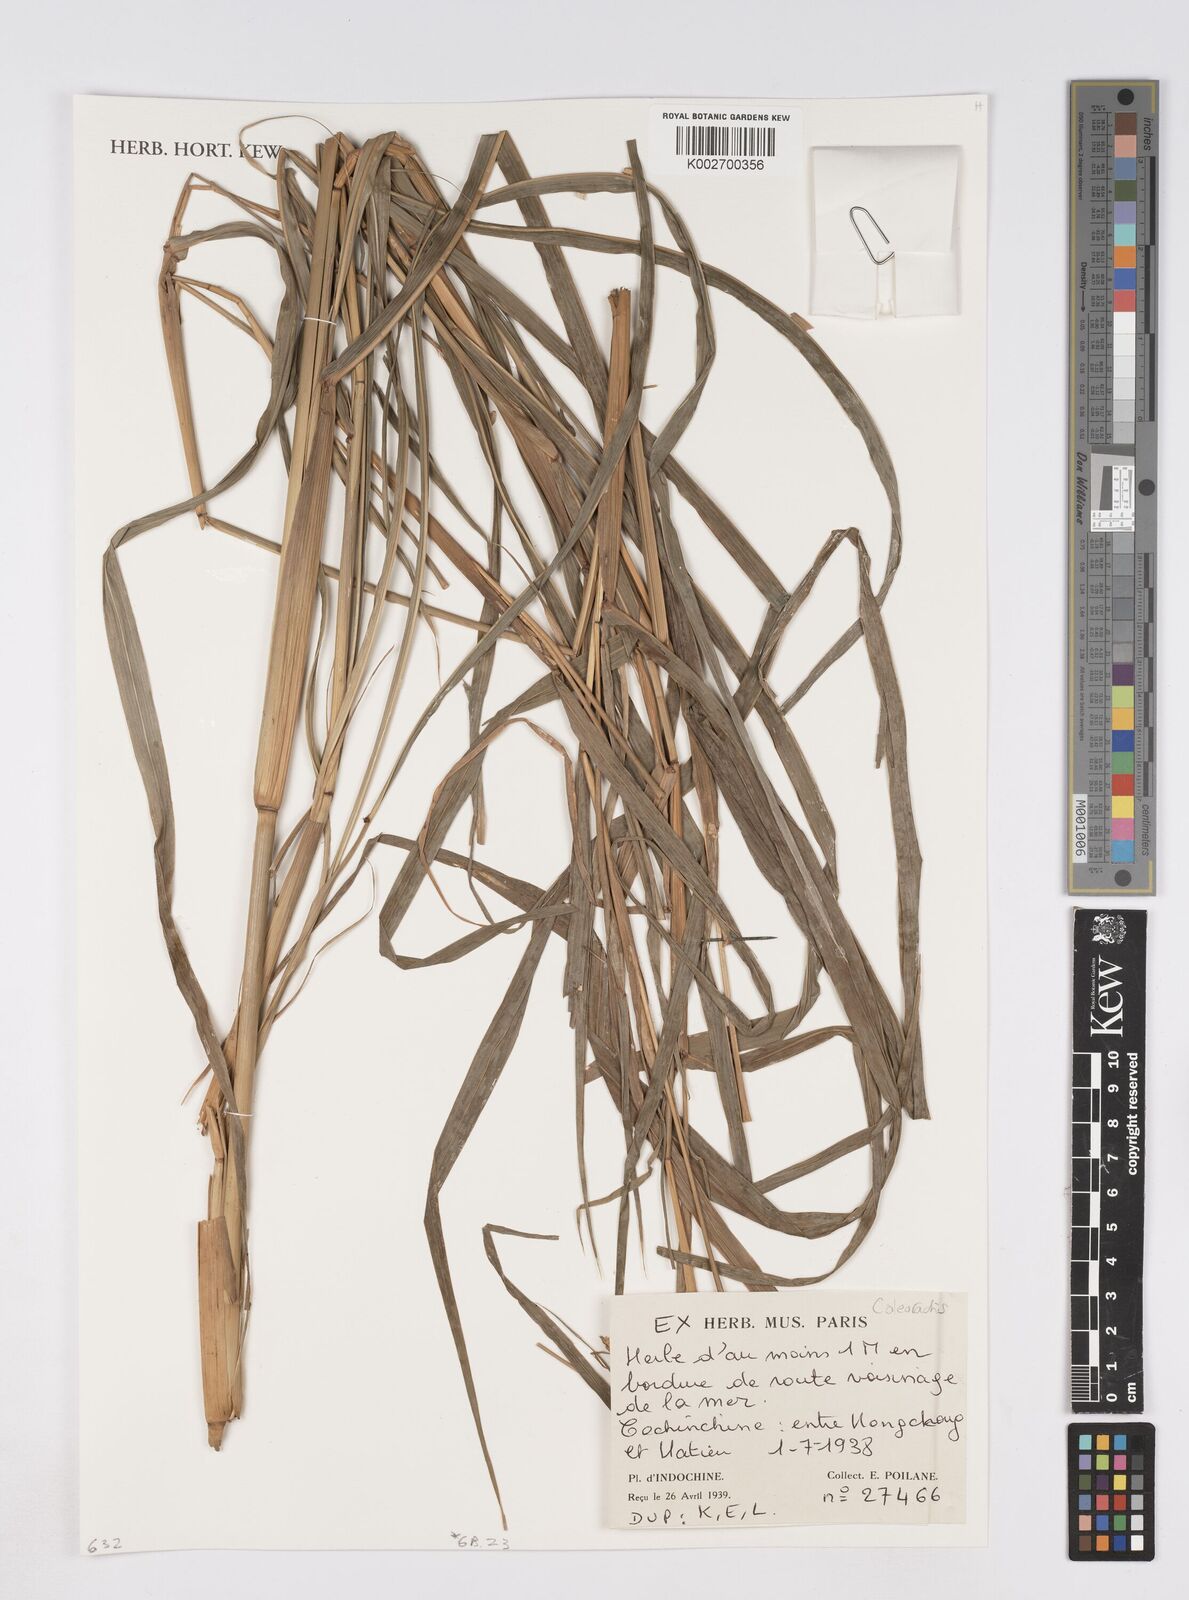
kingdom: Plantae
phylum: Tracheophyta
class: Liliopsida
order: Poales
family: Poaceae
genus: Rottboellia
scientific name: Rottboellia
